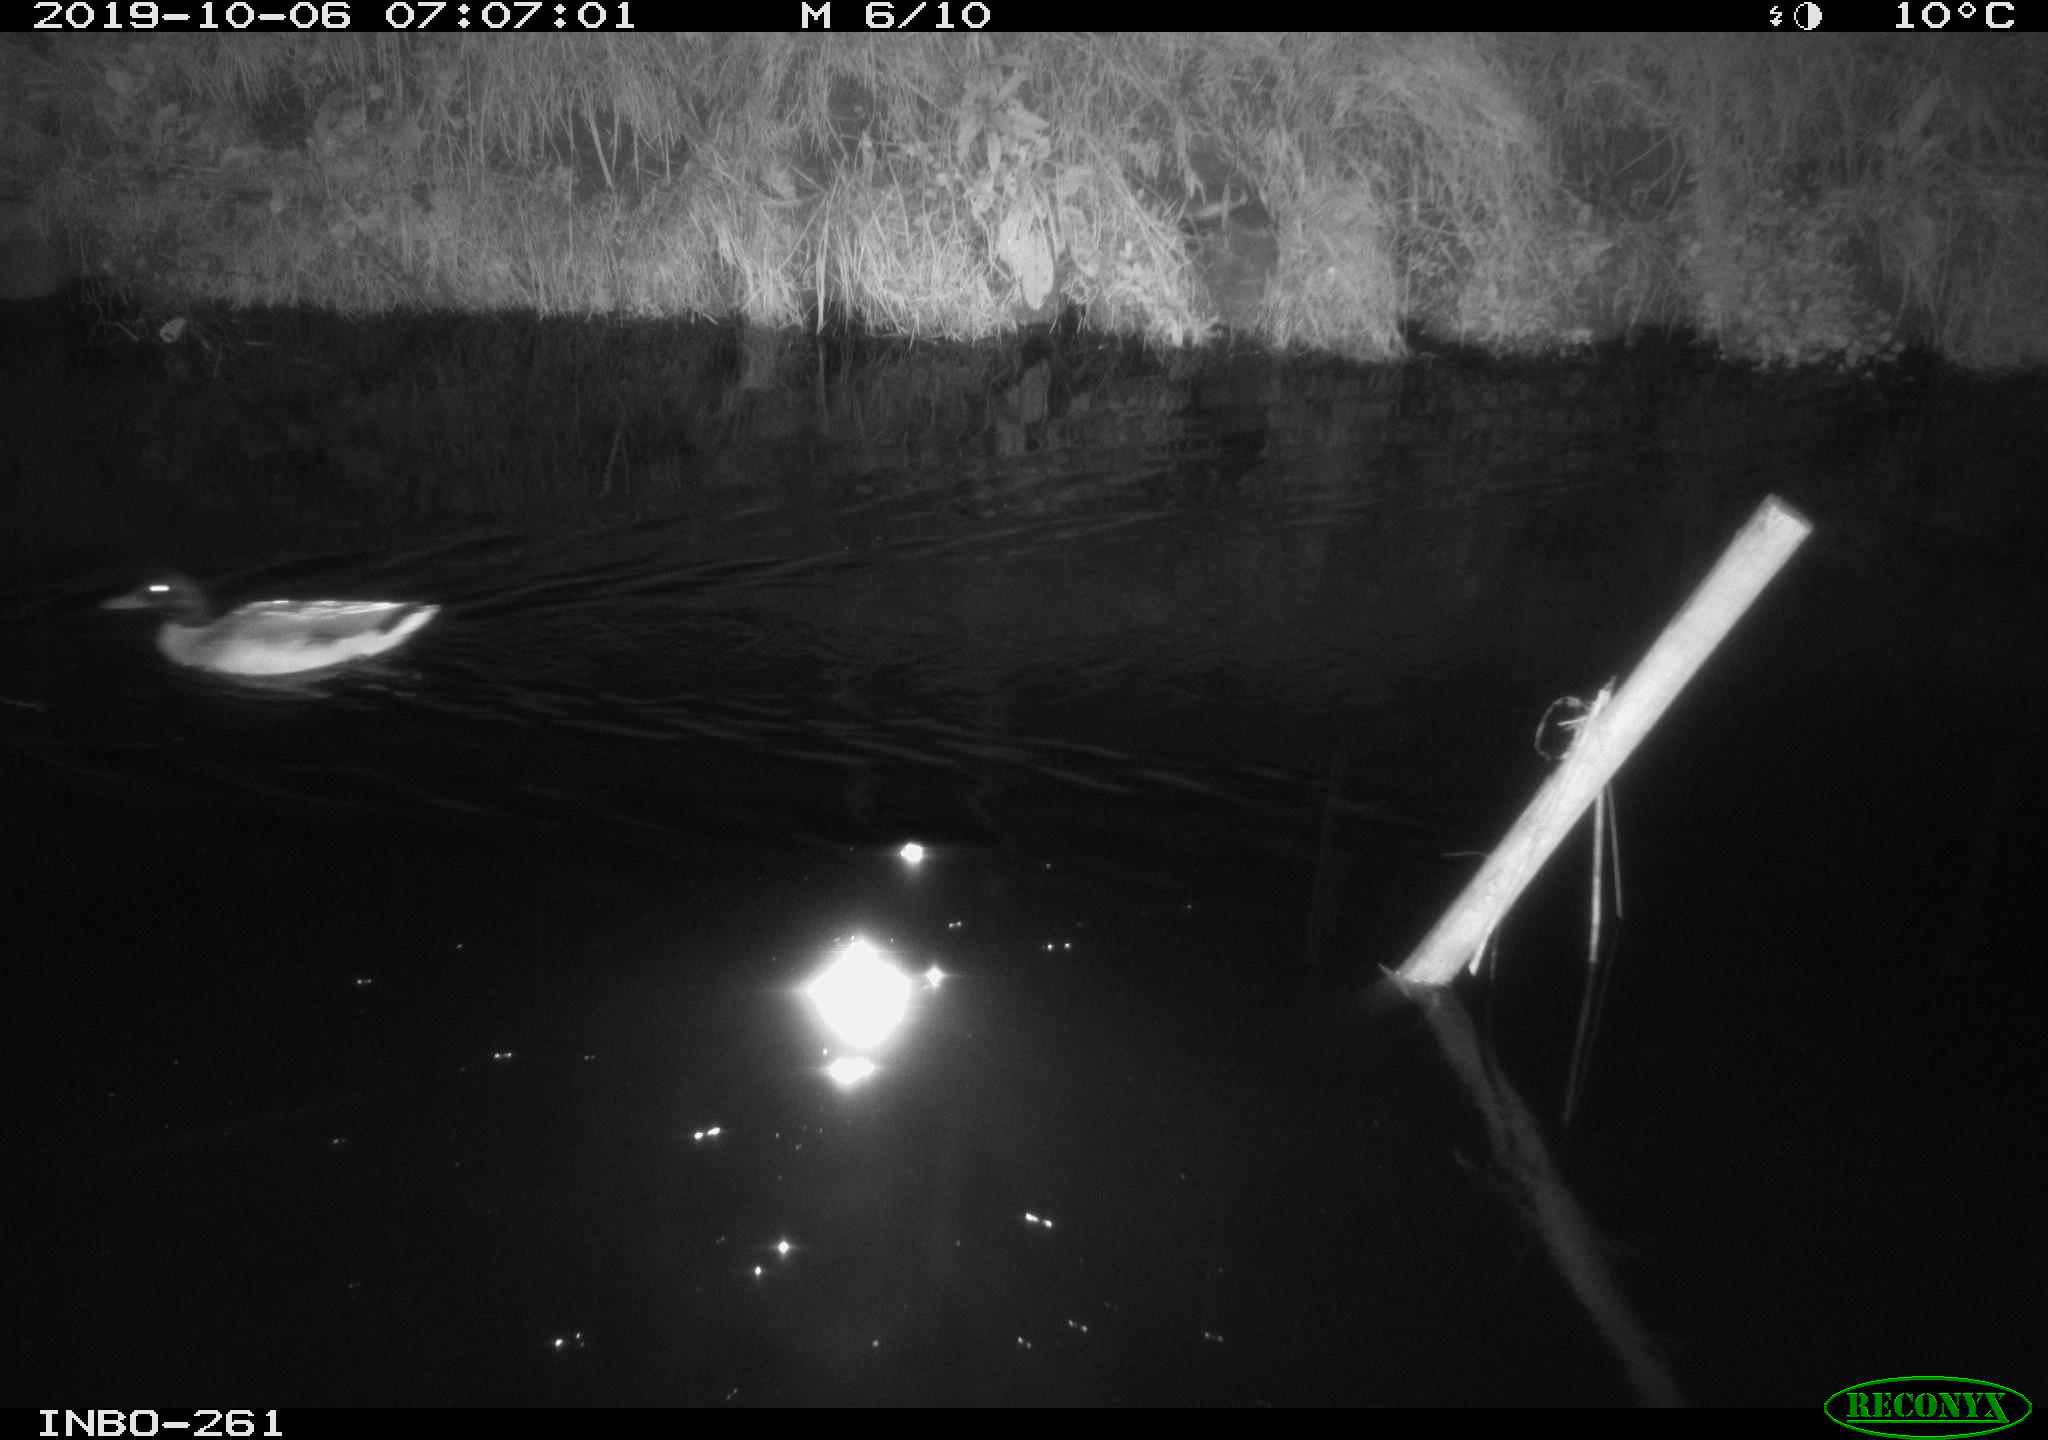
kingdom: Animalia
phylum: Chordata
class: Aves
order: Anseriformes
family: Anatidae
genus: Anas
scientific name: Anas platyrhynchos
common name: Mallard
